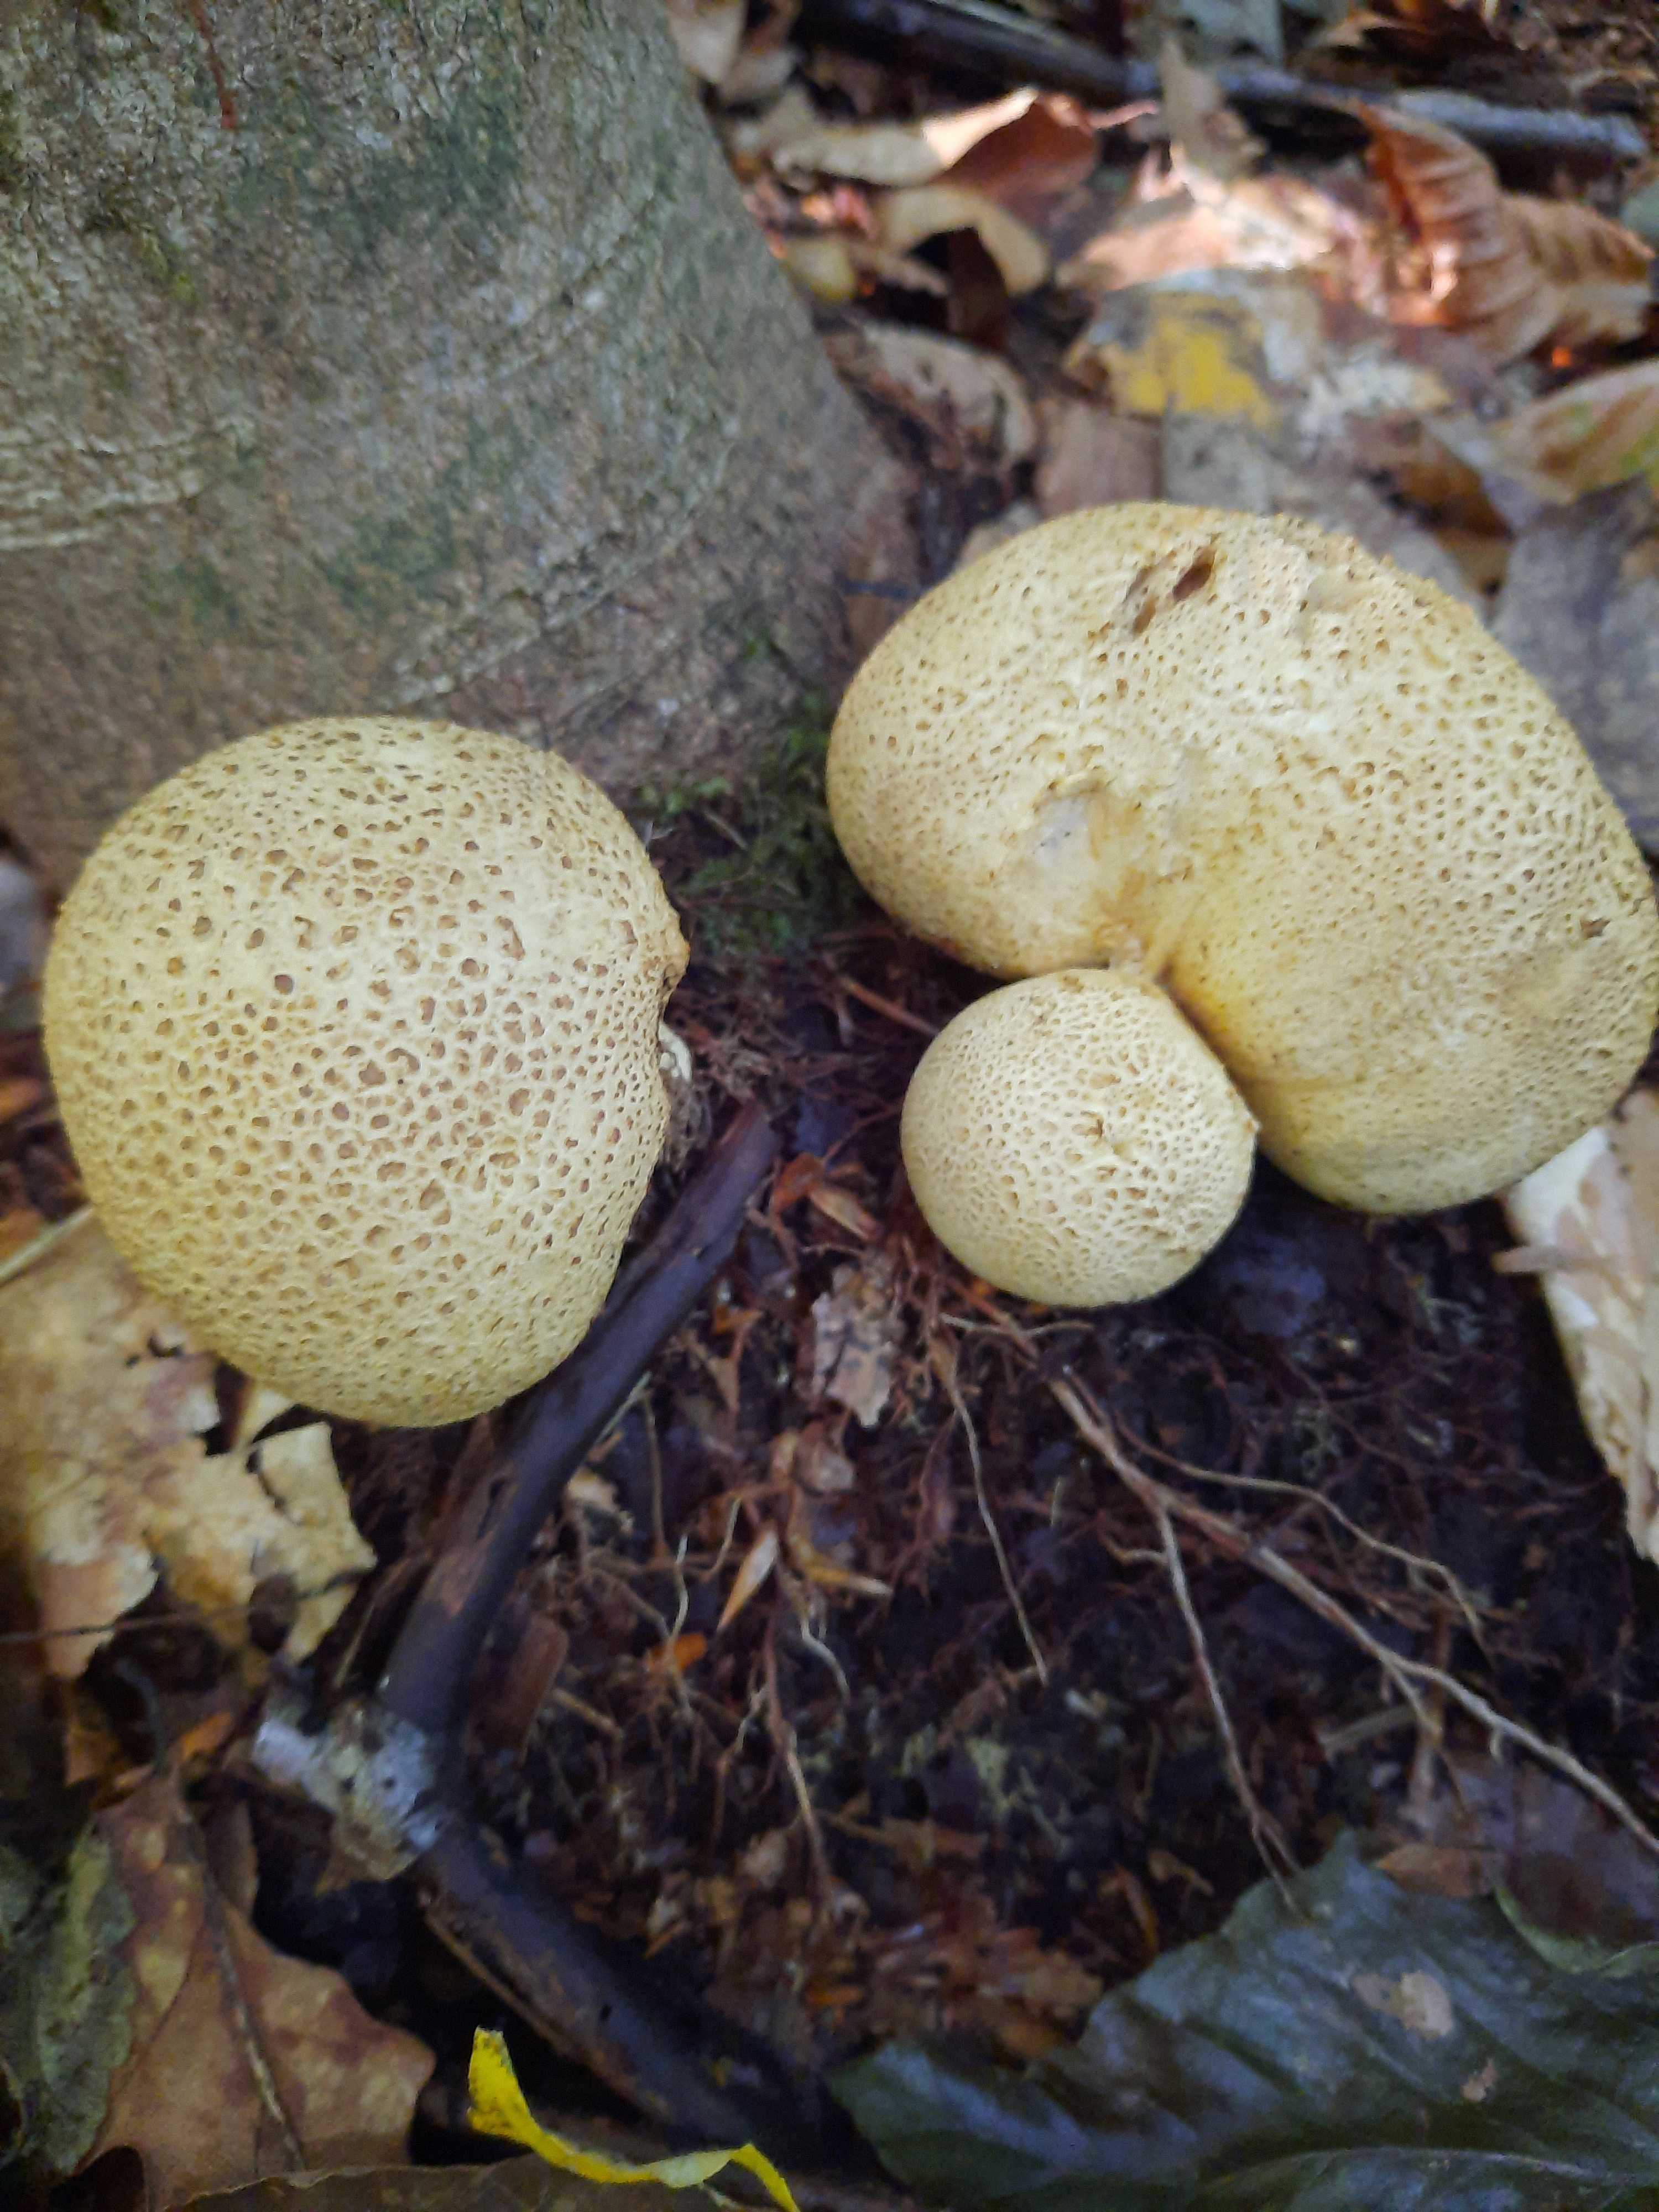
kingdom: Fungi
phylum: Basidiomycota
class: Agaricomycetes
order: Boletales
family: Sclerodermataceae
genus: Scleroderma
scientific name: Scleroderma citrinum
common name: almindelig bruskbold
